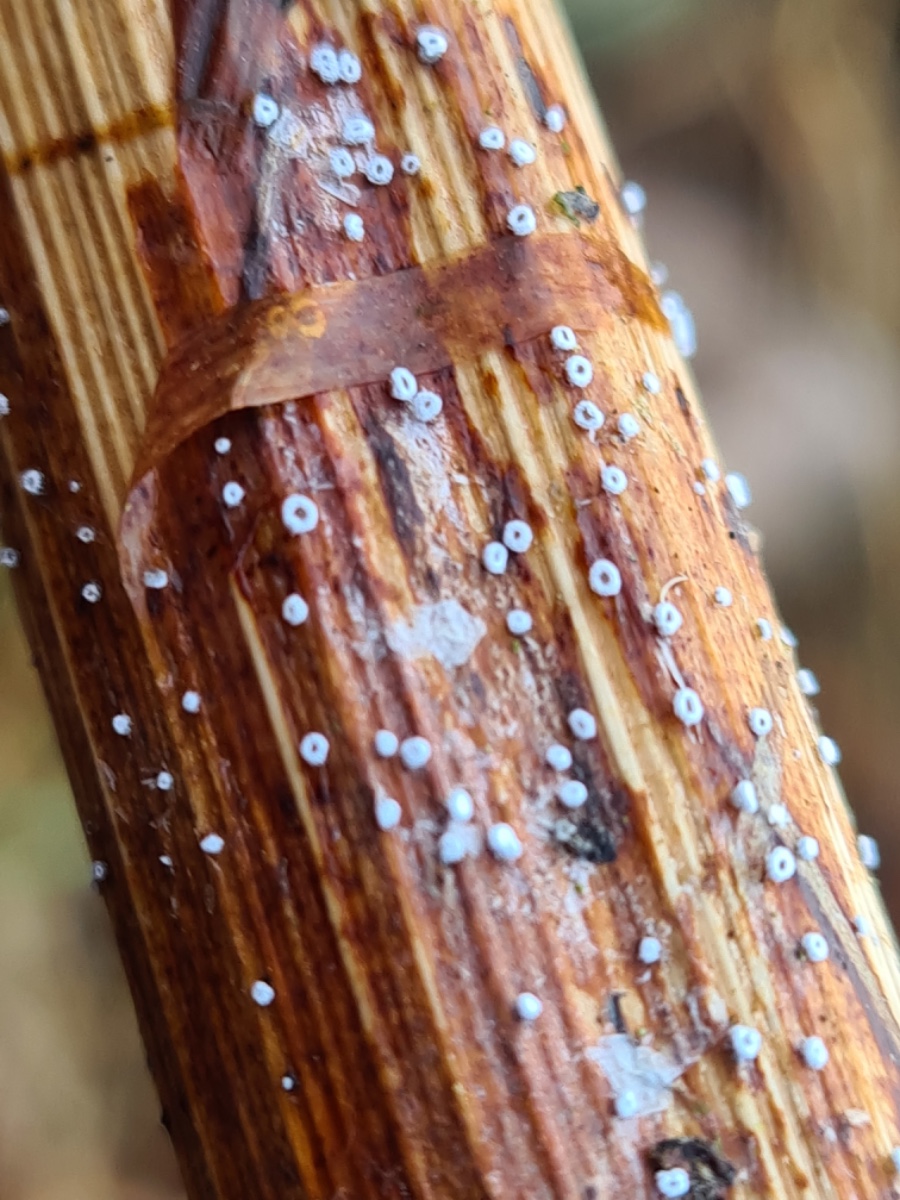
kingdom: Fungi
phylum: Basidiomycota
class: Agaricomycetes
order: Agaricales
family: Niaceae
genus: Lachnella
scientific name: Lachnella alboviolascens
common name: grå frynserede
